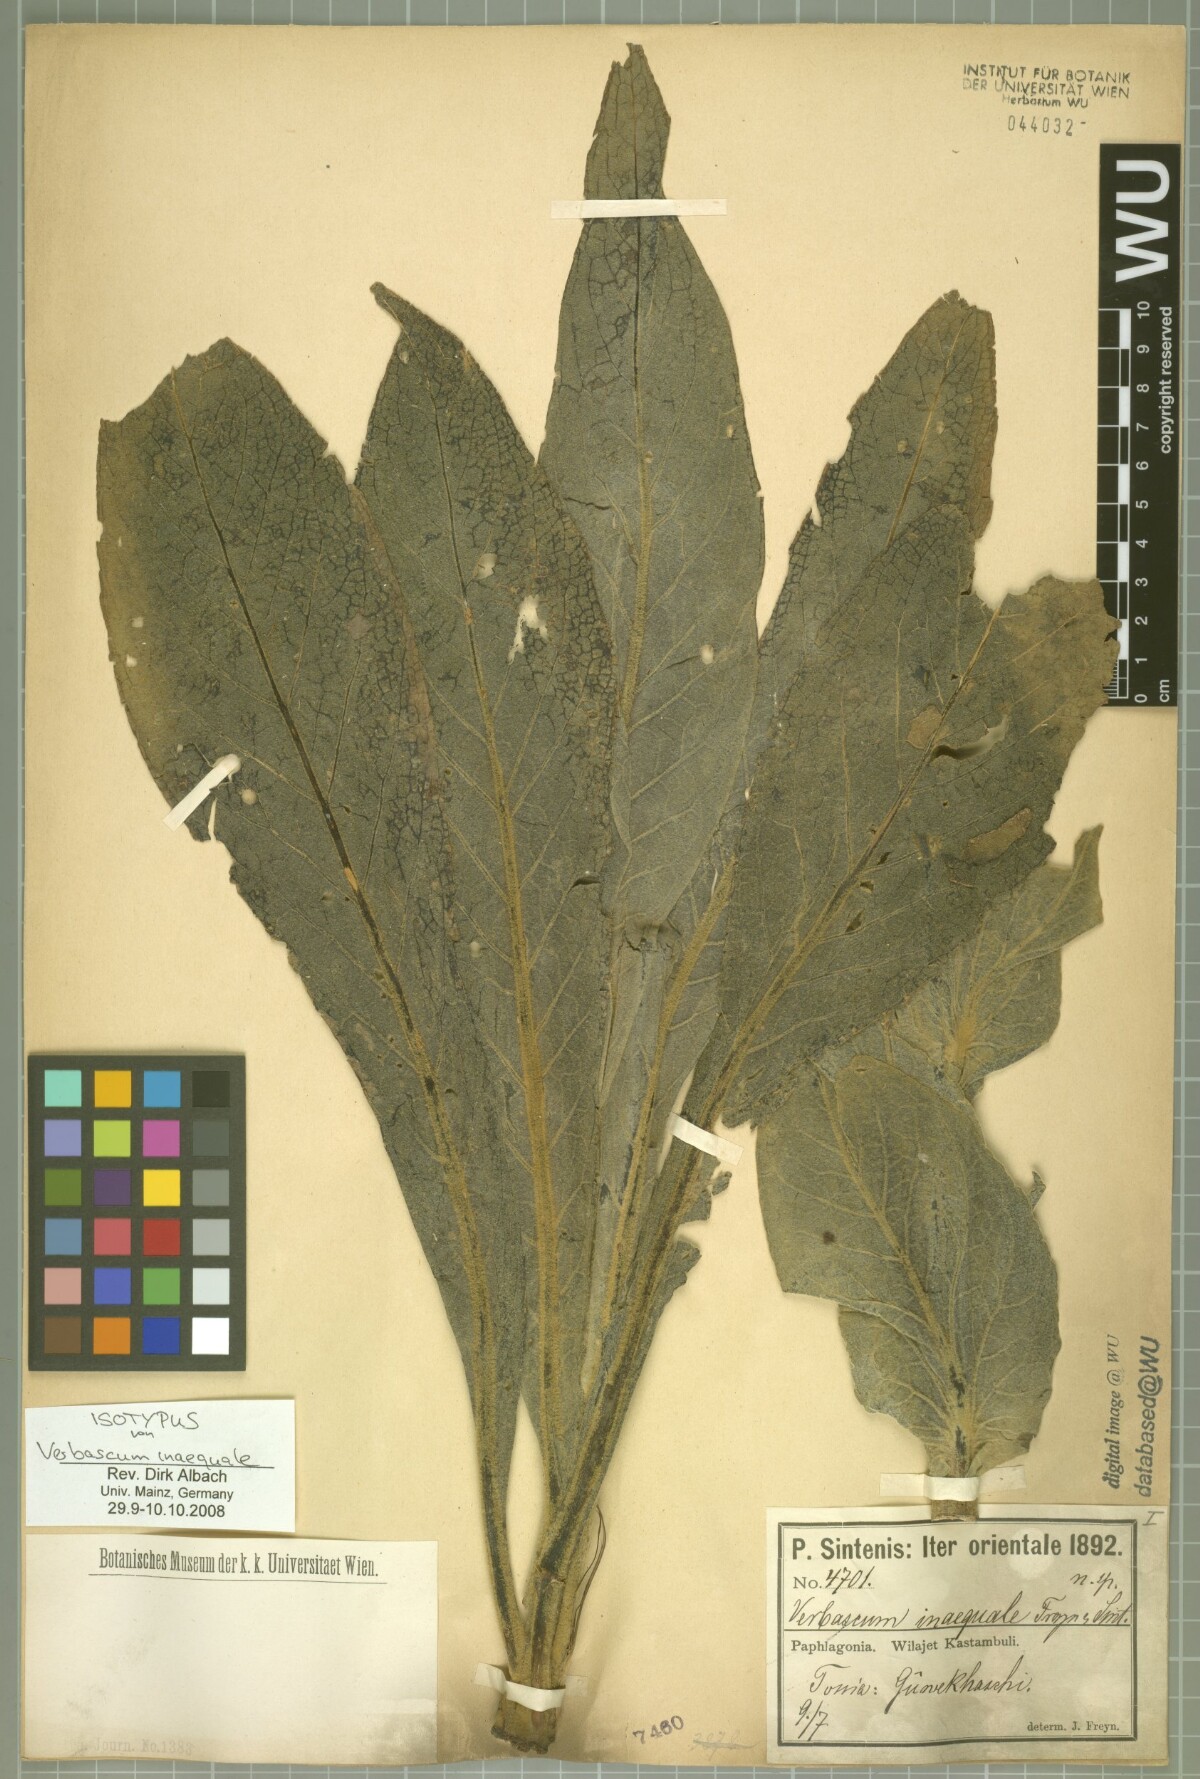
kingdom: Plantae
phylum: Tracheophyta
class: Magnoliopsida
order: Lamiales
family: Scrophulariaceae
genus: Verbascum
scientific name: Verbascum inaequale
